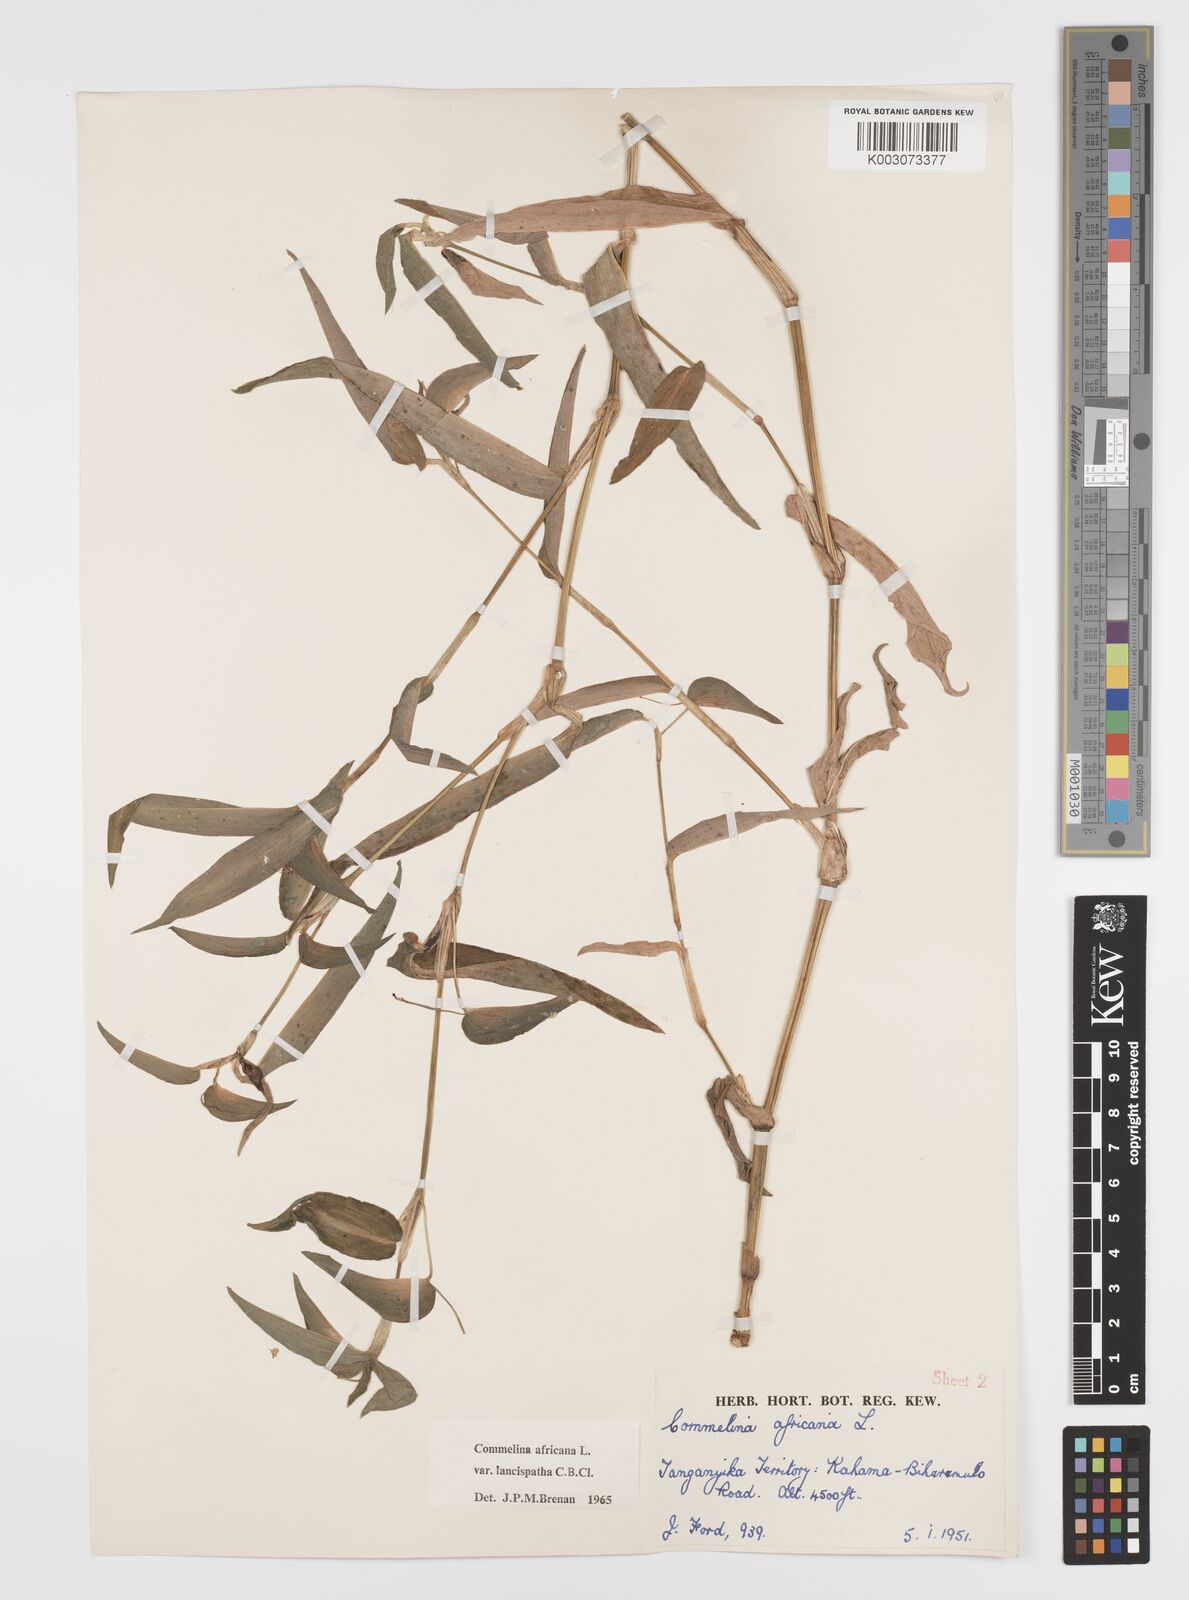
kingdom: Plantae
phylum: Tracheophyta
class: Liliopsida
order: Commelinales
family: Commelinaceae
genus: Commelina
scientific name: Commelina africana
